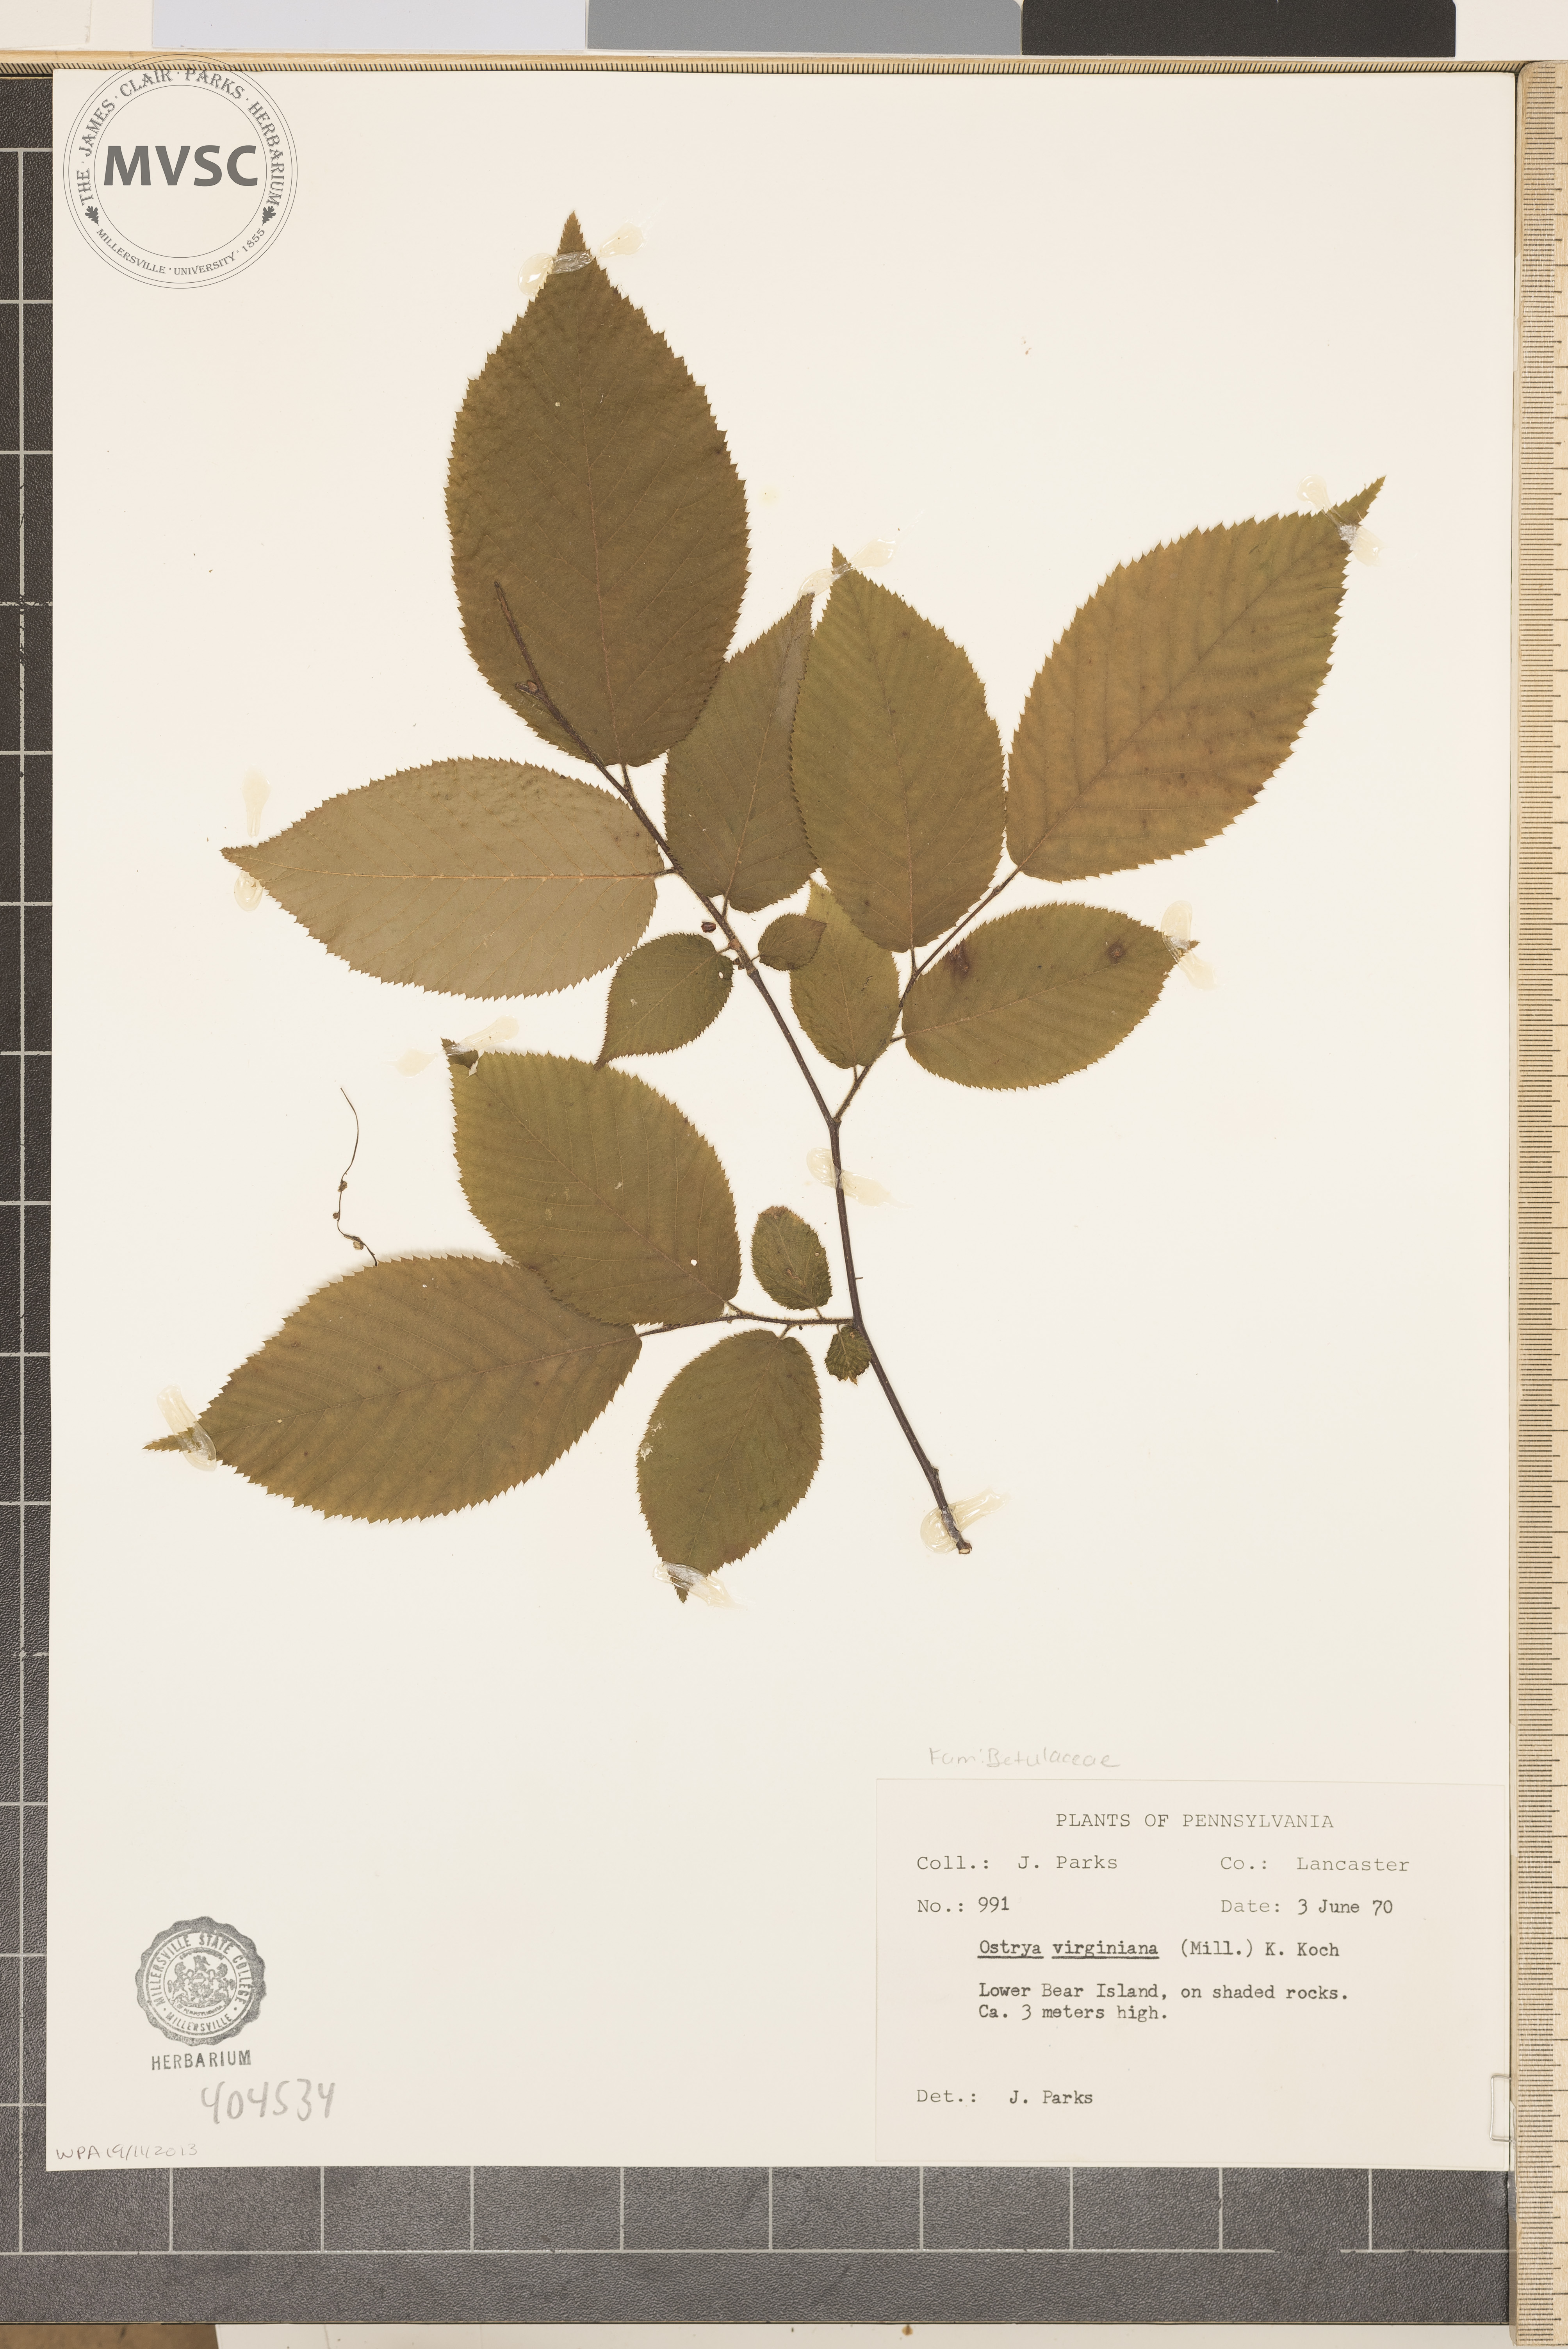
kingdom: Plantae
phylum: Tracheophyta
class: Magnoliopsida
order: Fagales
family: Betulaceae
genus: Ostrya
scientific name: Ostrya virginiana
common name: Ironwood
